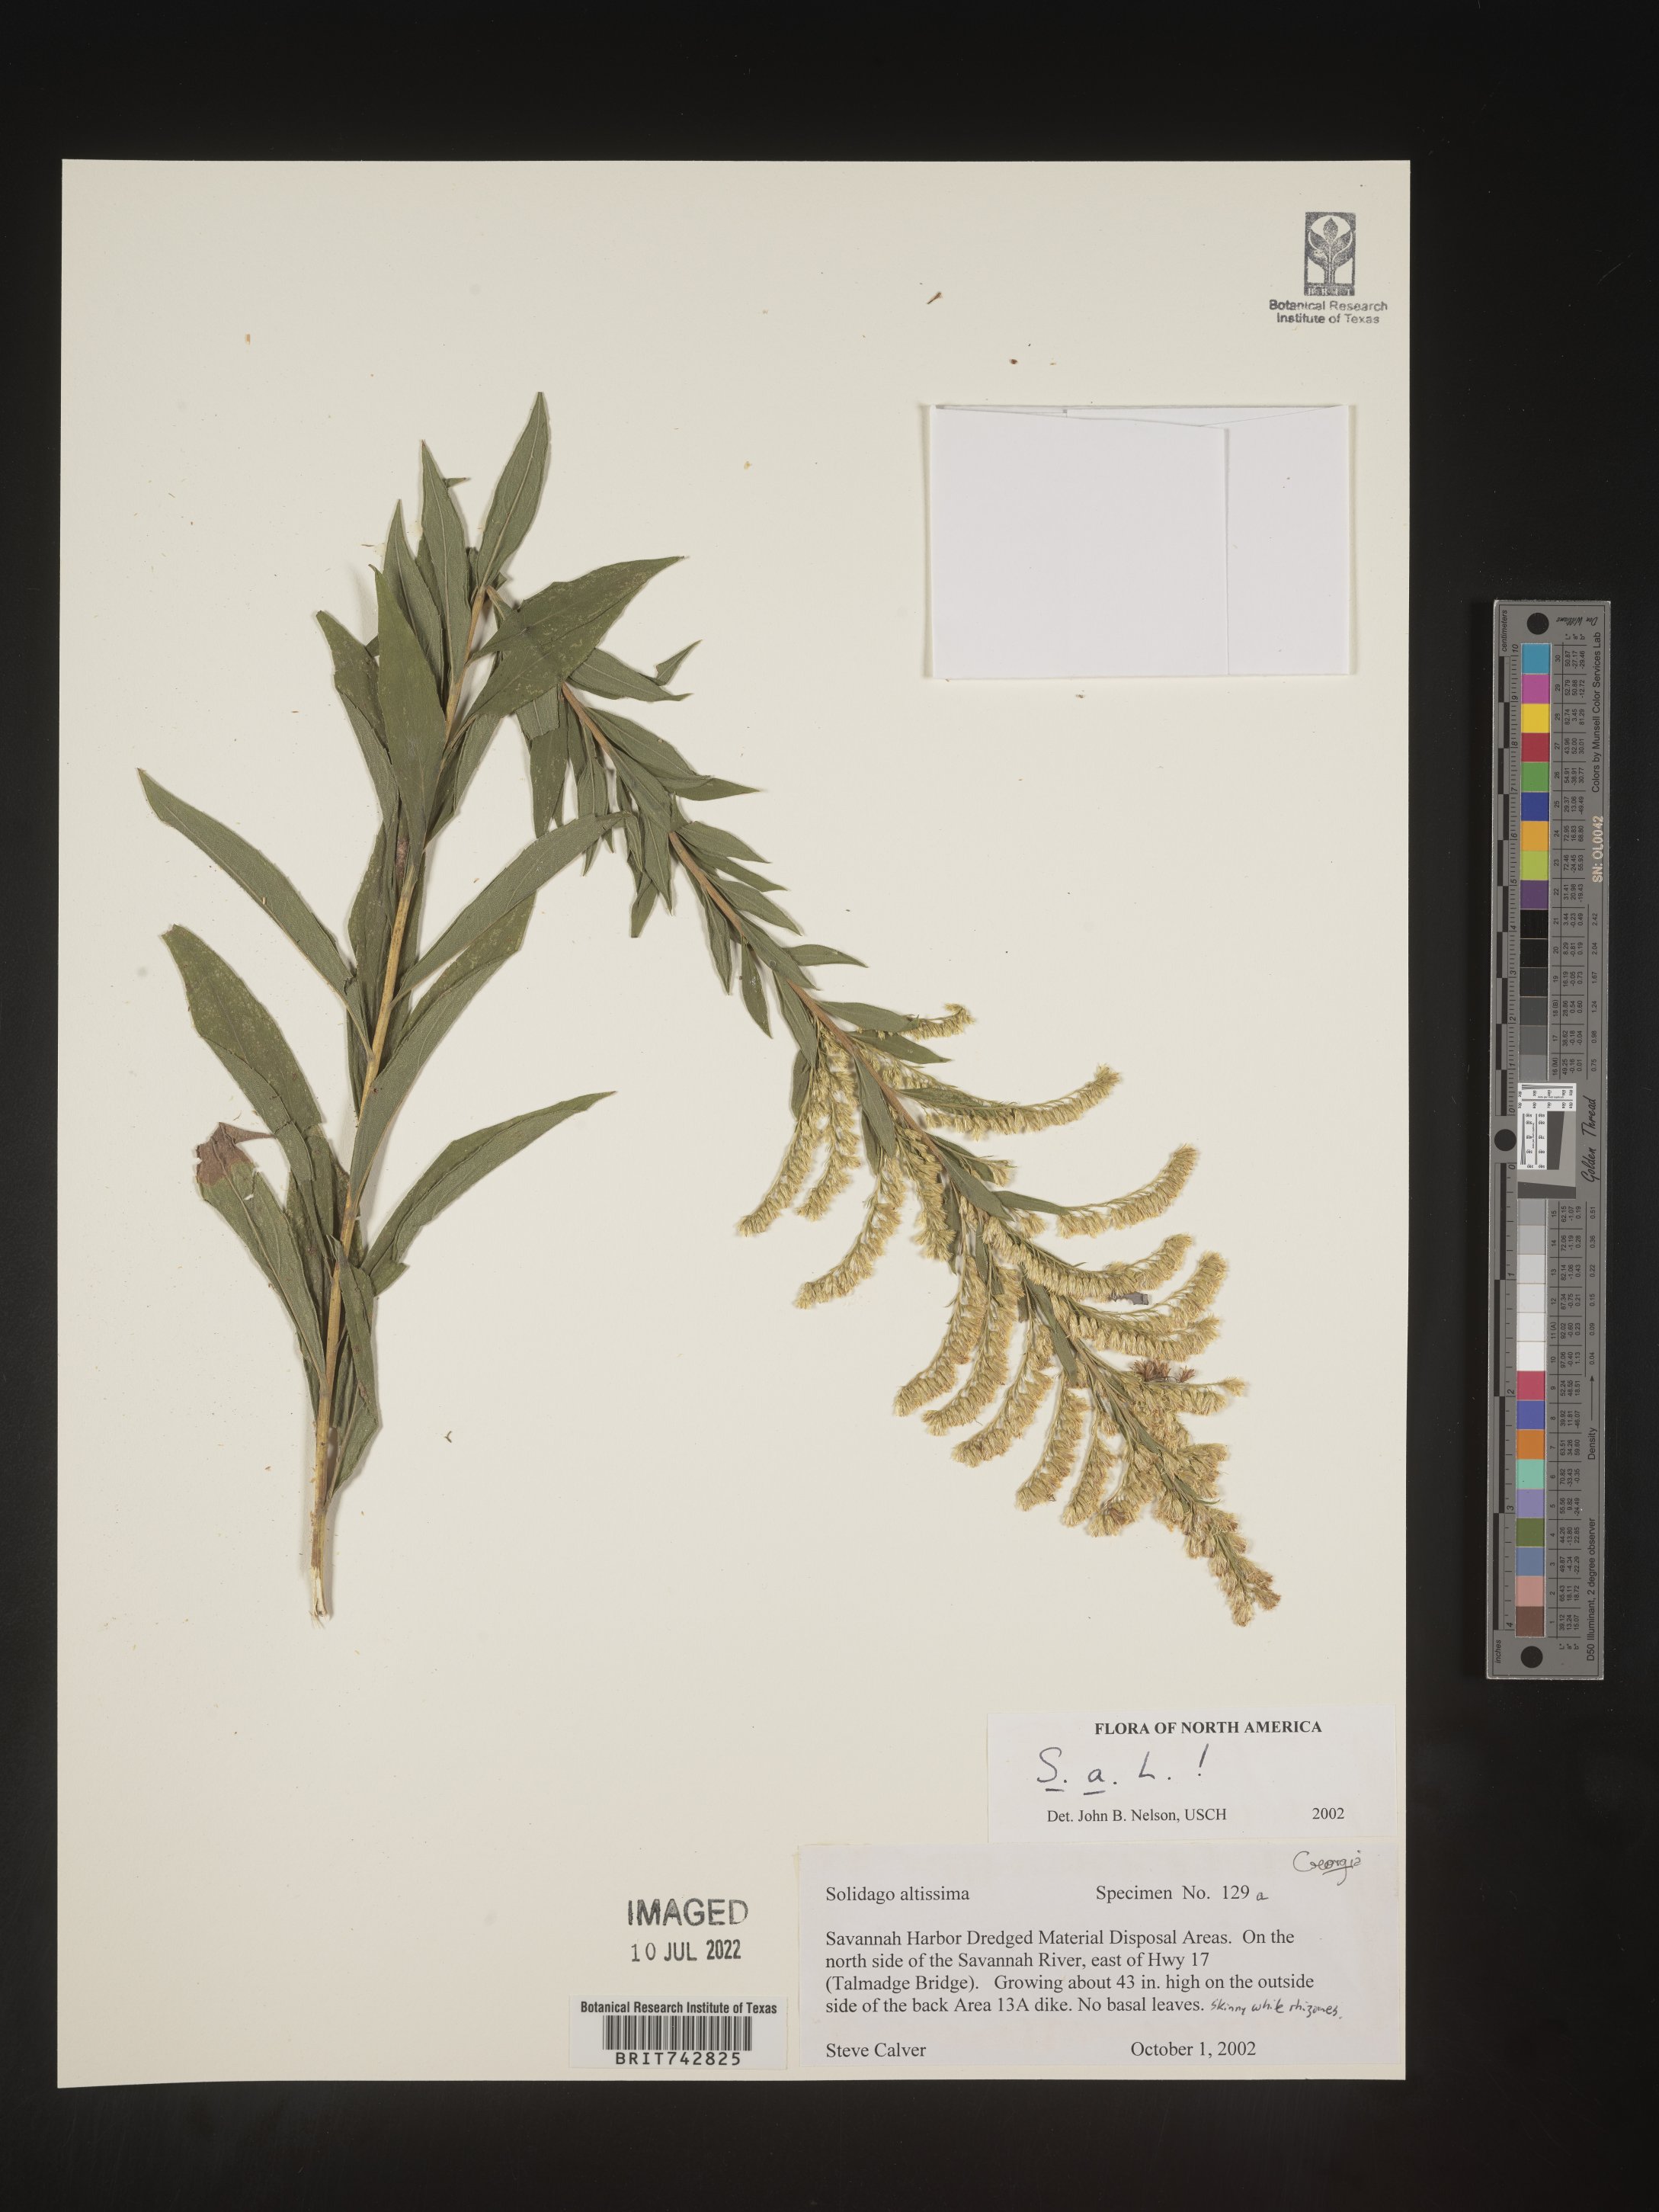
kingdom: Plantae
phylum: Tracheophyta
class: Magnoliopsida
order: Asterales
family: Asteraceae
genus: Solidago
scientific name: Solidago altissima
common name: Late goldenrod
